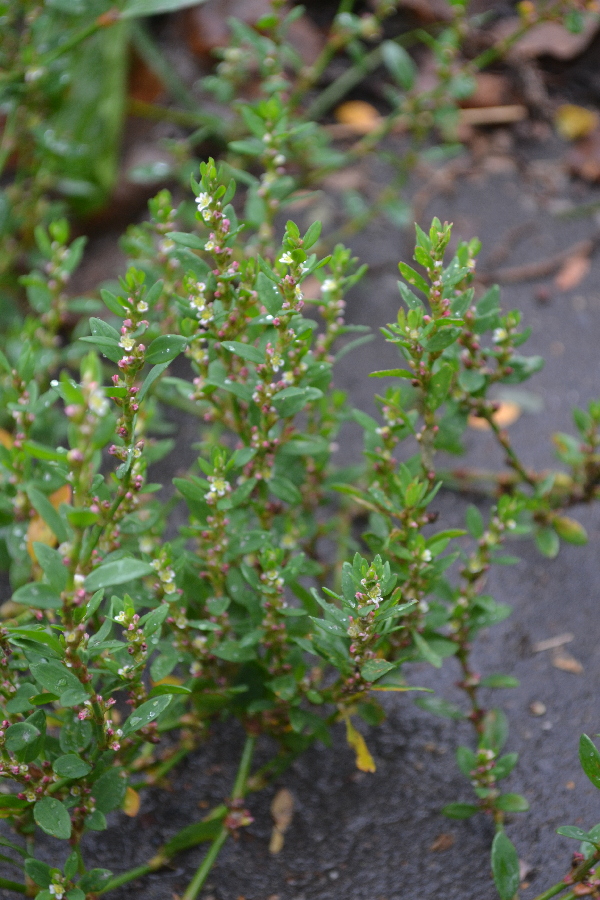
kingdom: Plantae
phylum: Tracheophyta
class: Magnoliopsida
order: Caryophyllales
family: Polygonaceae
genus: Polygonum
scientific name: Polygonum aviculare
